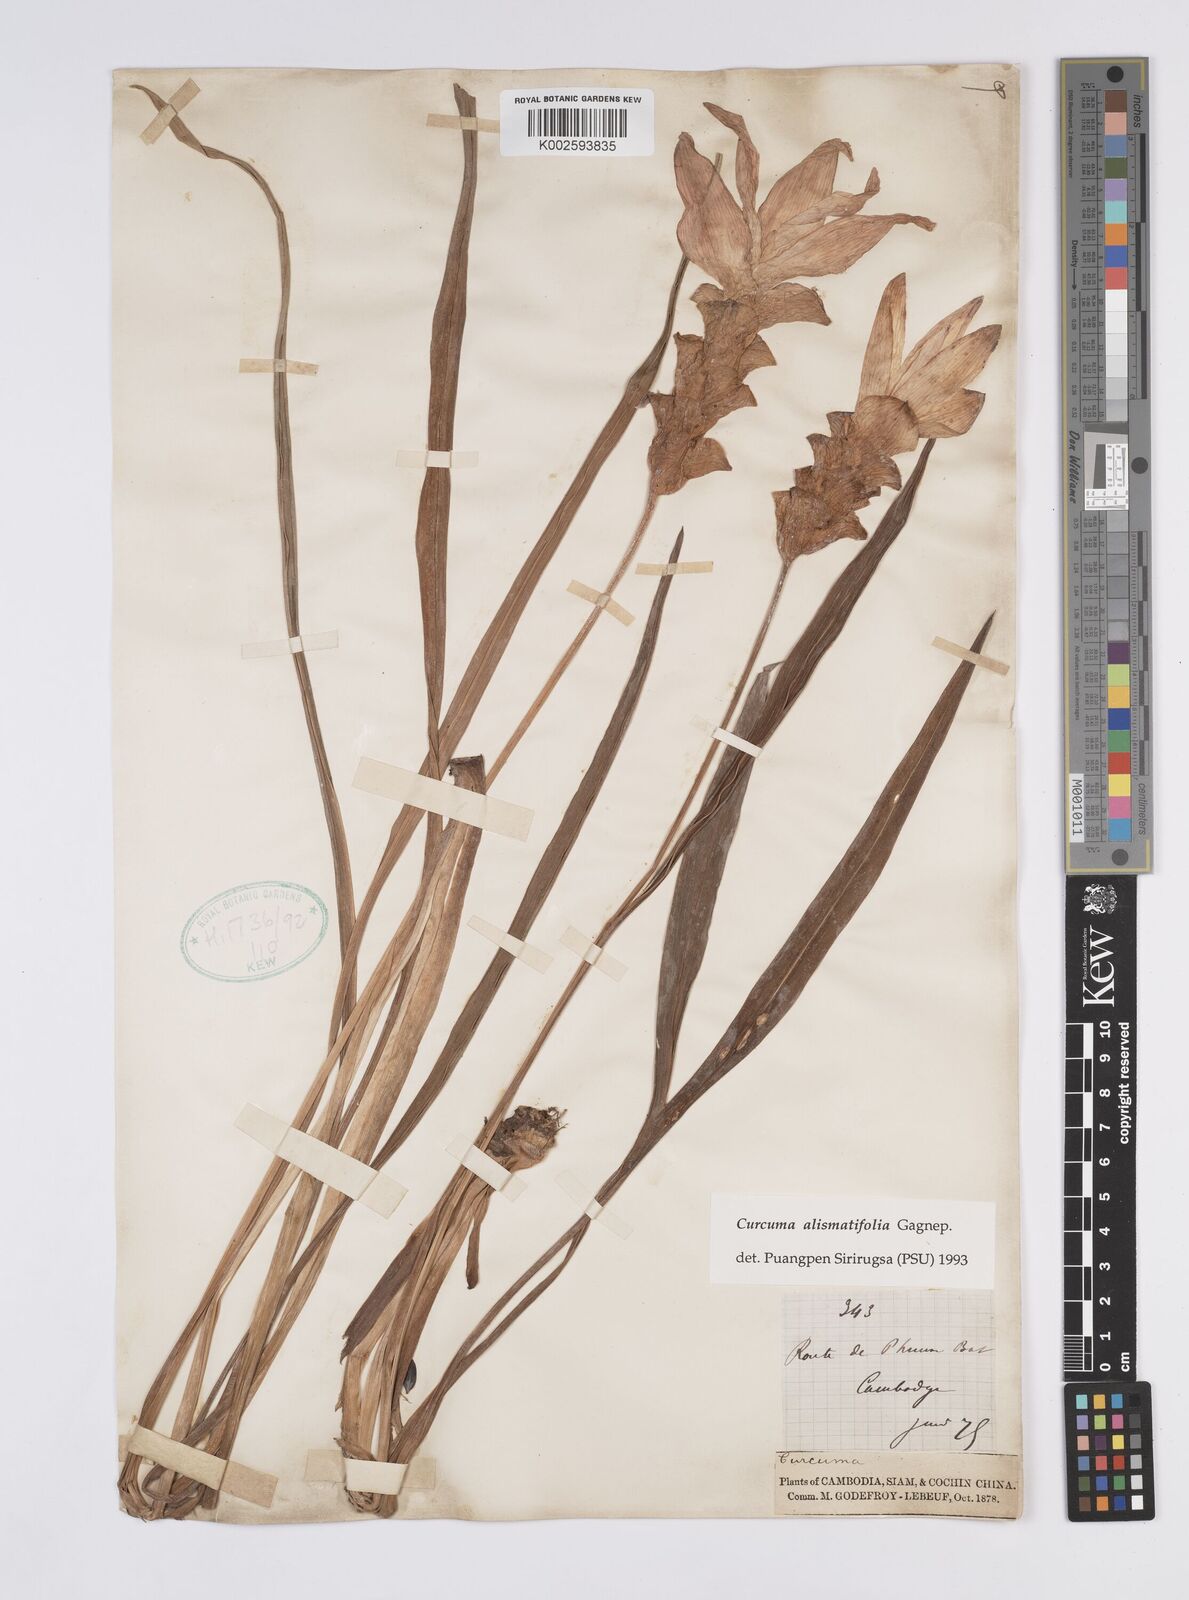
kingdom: Plantae
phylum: Tracheophyta
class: Liliopsida
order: Zingiberales
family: Zingiberaceae
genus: Curcuma
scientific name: Curcuma alismatifolia
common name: Siam tulip
